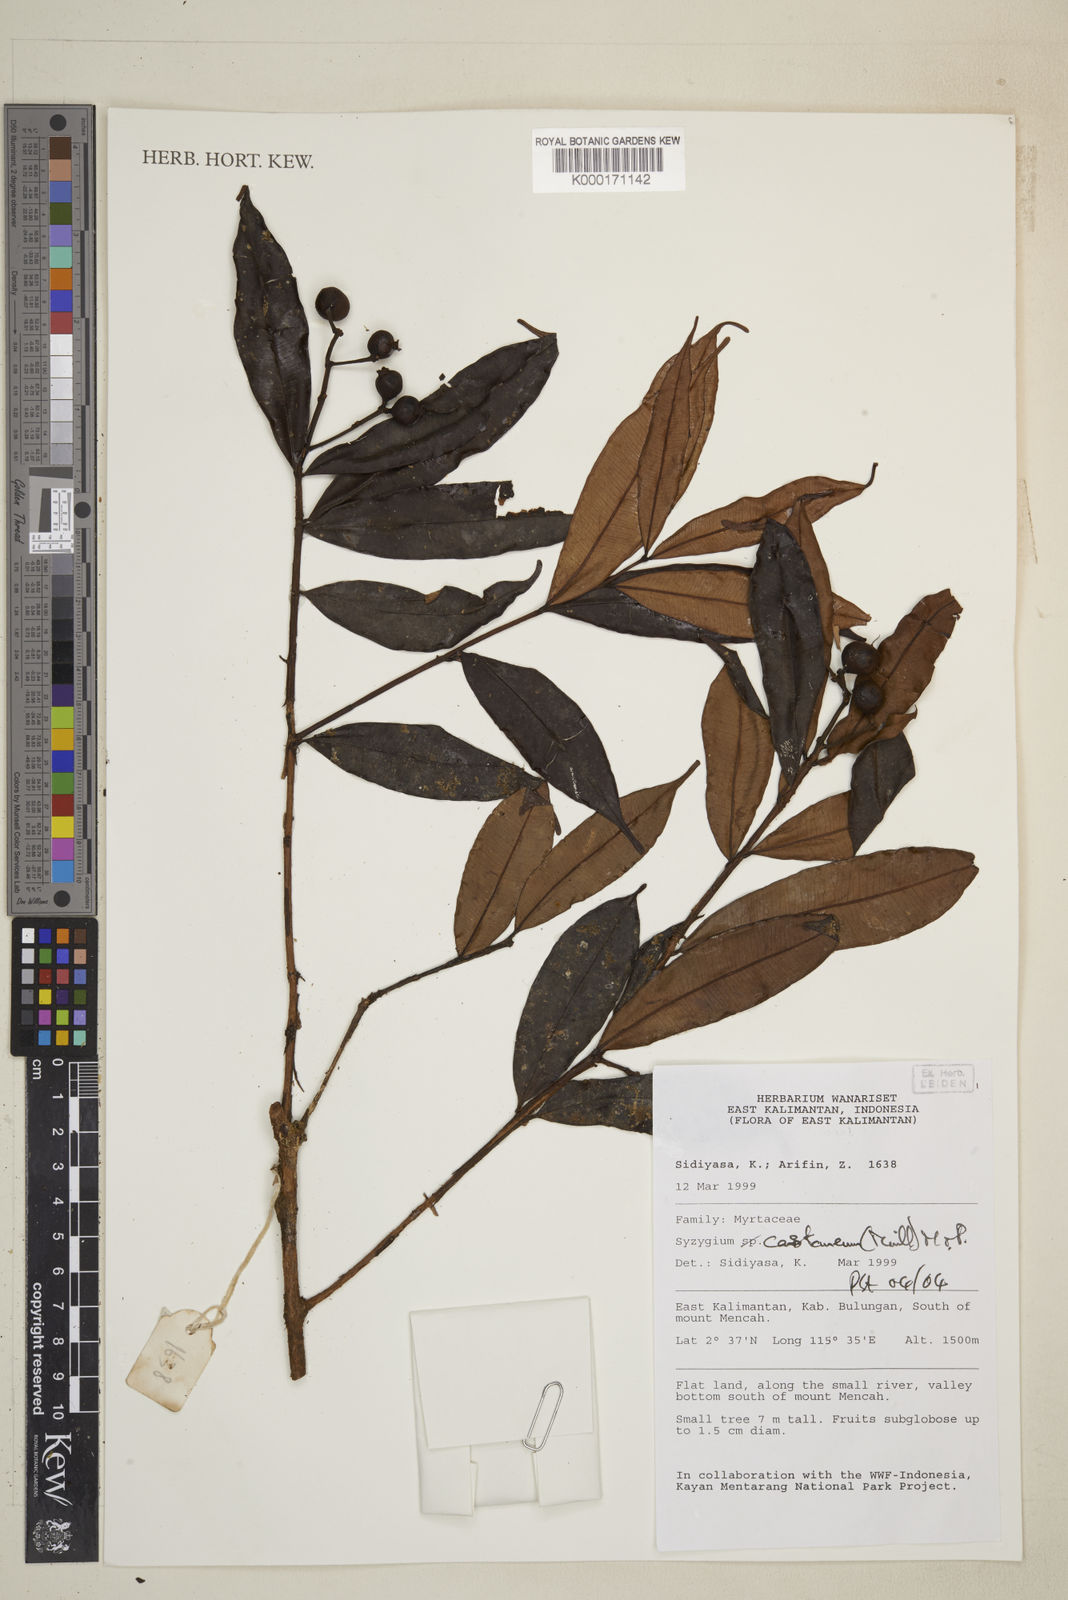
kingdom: Plantae
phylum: Tracheophyta
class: Magnoliopsida
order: Myrtales
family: Myrtaceae
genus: Syzygium
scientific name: Syzygium castaneum
